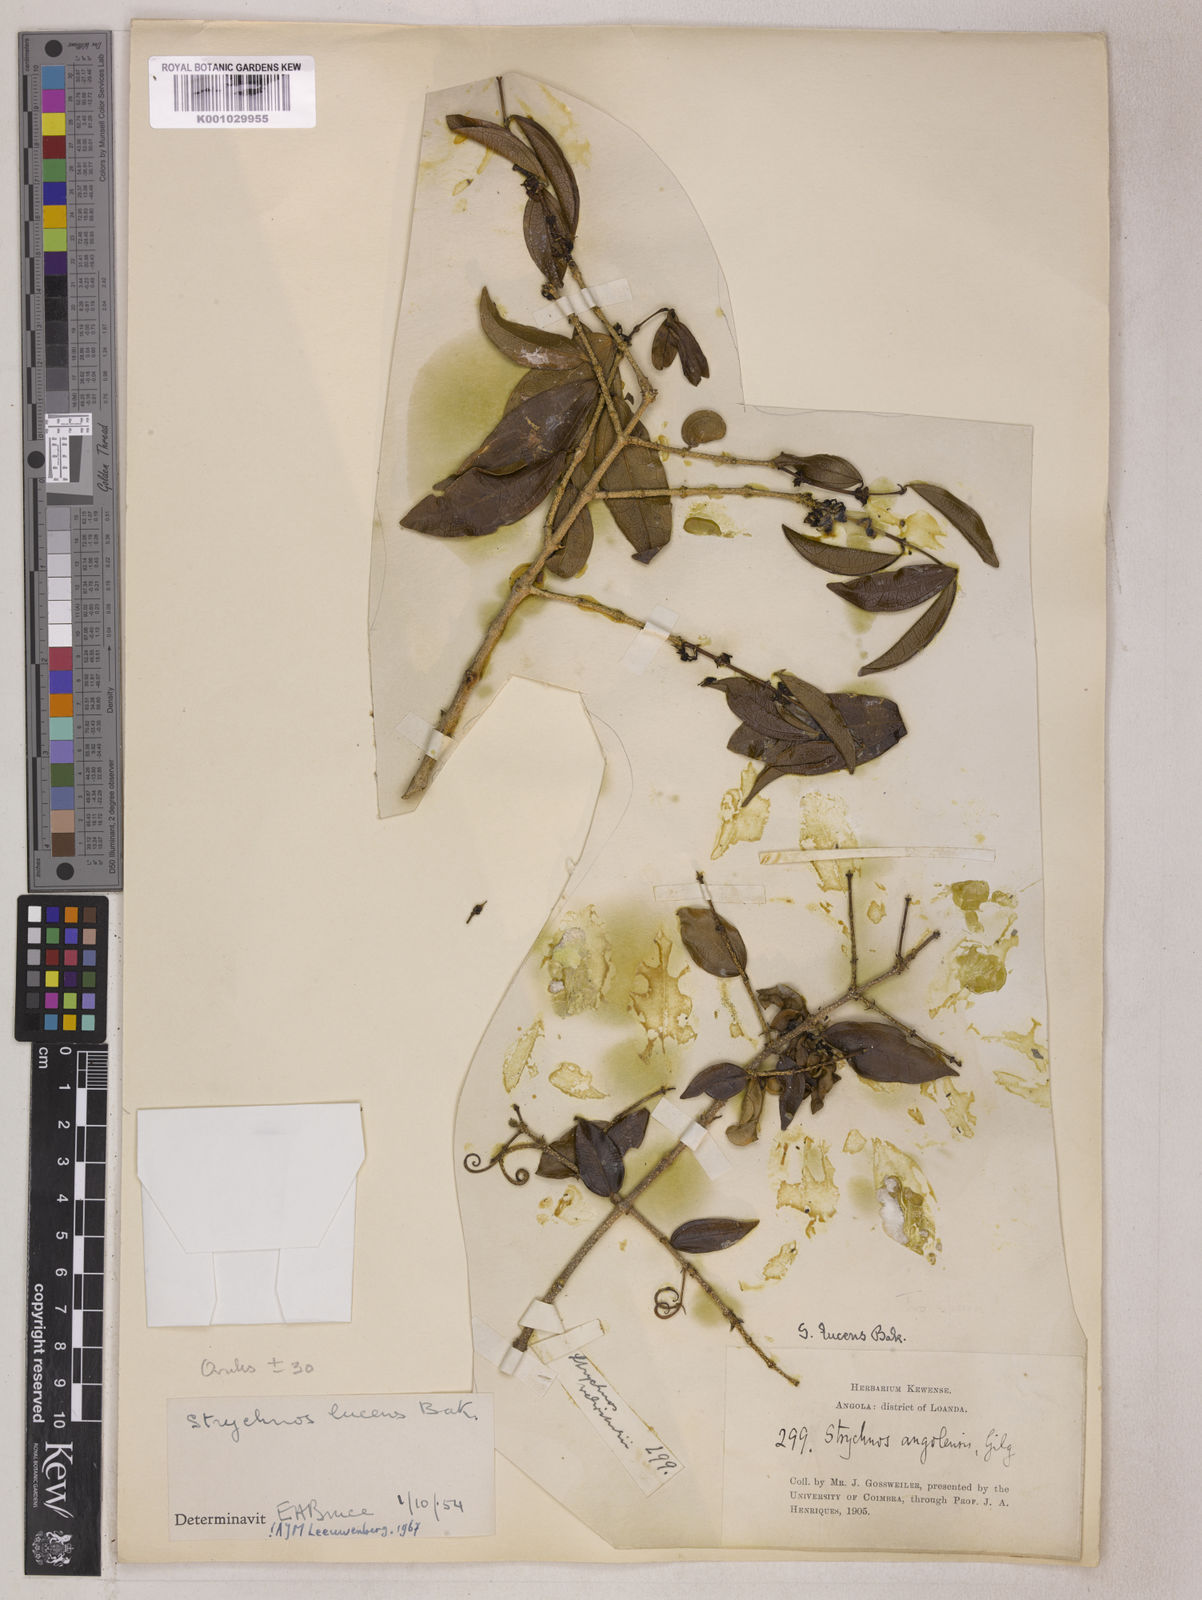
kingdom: Plantae
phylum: Tracheophyta
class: Magnoliopsida
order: Gentianales
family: Loganiaceae
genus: Strychnos
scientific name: Strychnos lucens
